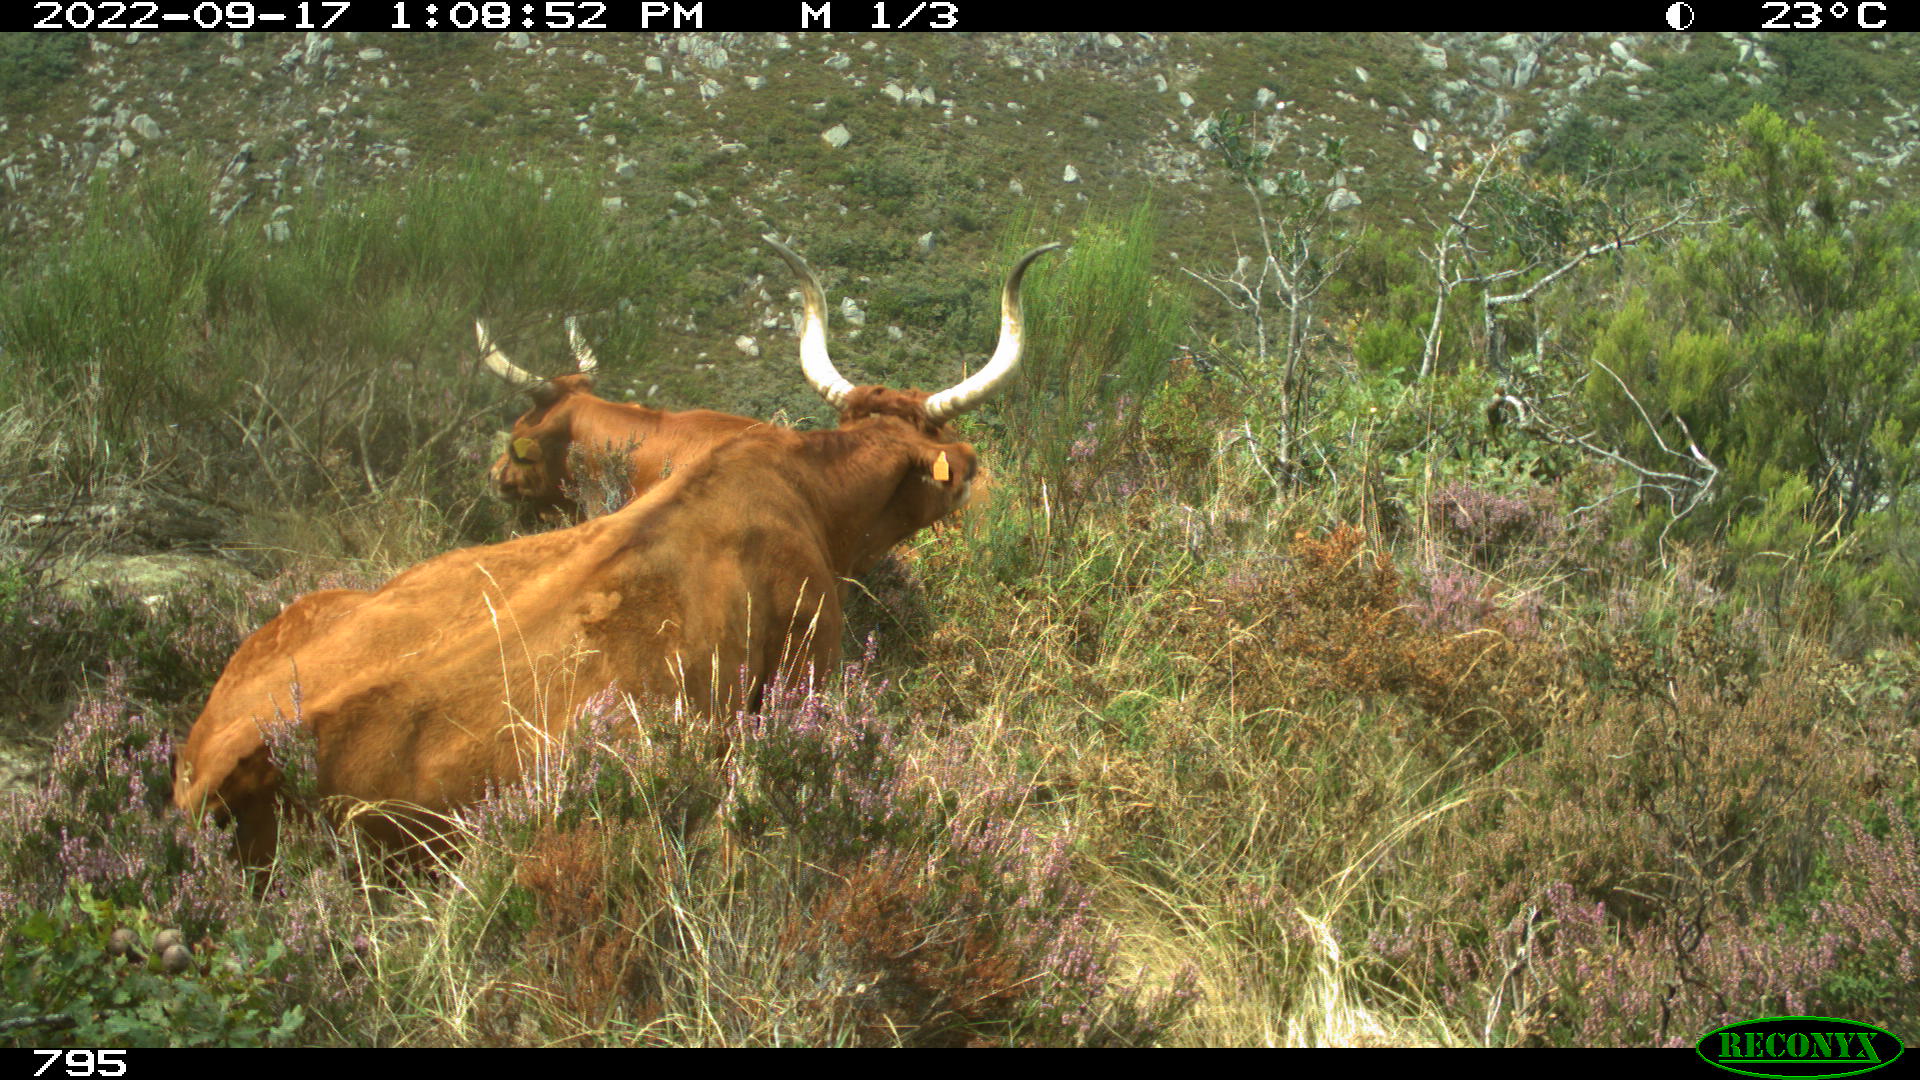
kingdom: Animalia
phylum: Chordata
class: Mammalia
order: Artiodactyla
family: Bovidae
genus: Bos
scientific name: Bos taurus
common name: Domesticated cattle
